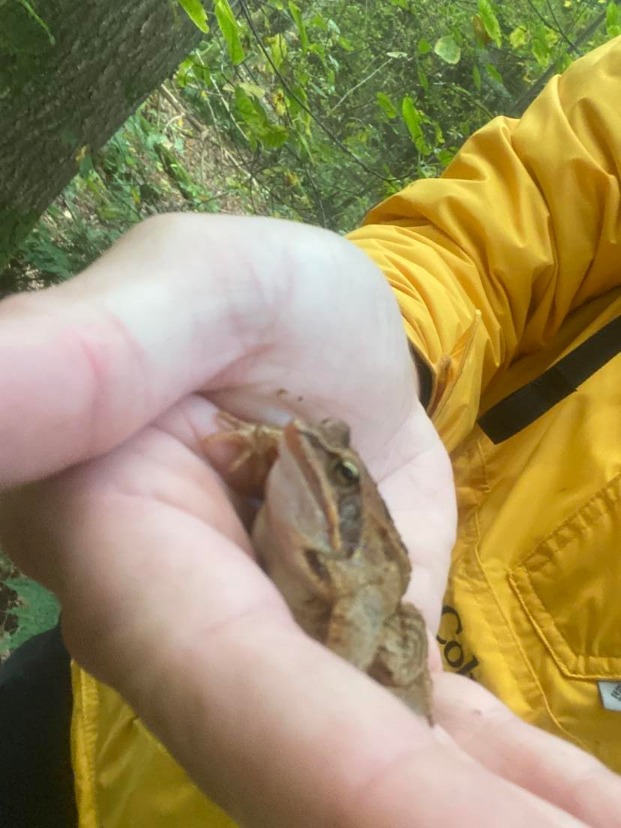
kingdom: Animalia
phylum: Chordata
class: Amphibia
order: Anura
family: Ranidae
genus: Rana
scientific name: Rana arvalis
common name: Spidssnudet frø
